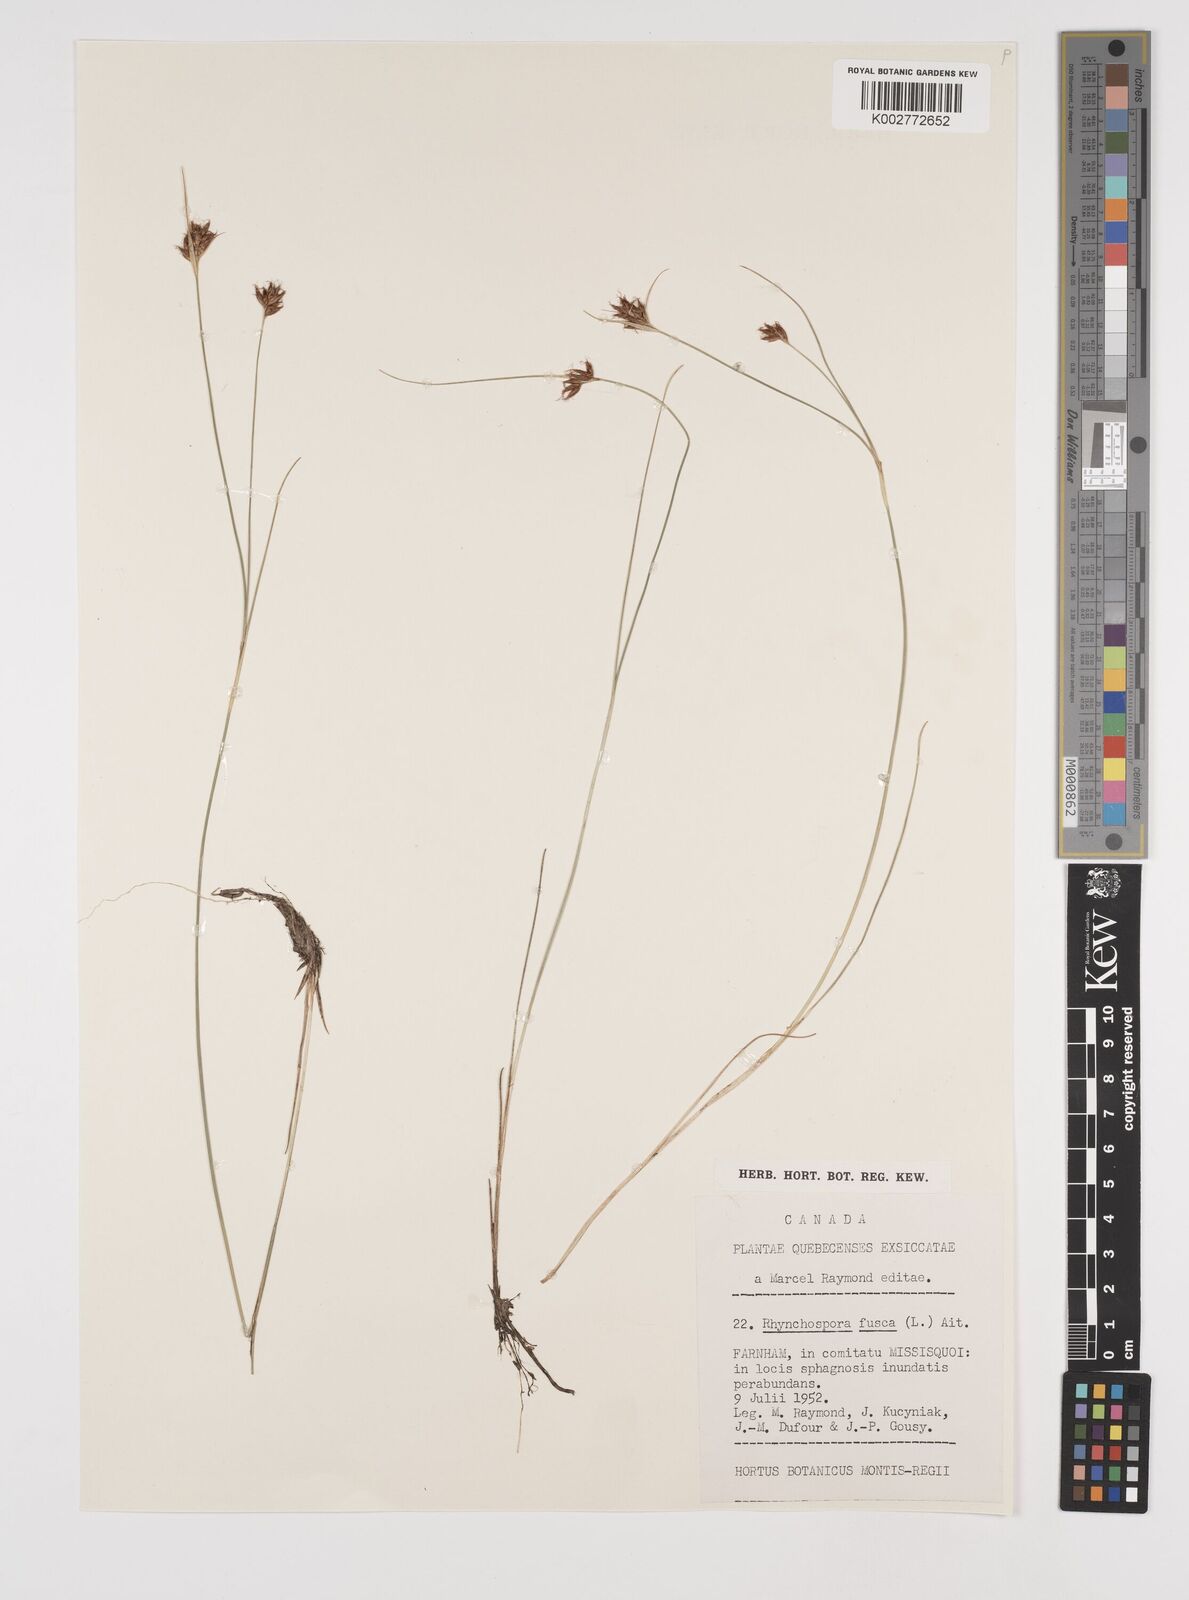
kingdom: Plantae
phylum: Tracheophyta
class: Liliopsida
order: Poales
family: Cyperaceae
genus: Rhynchospora
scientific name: Rhynchospora fusca
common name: Brown beak-sedge
